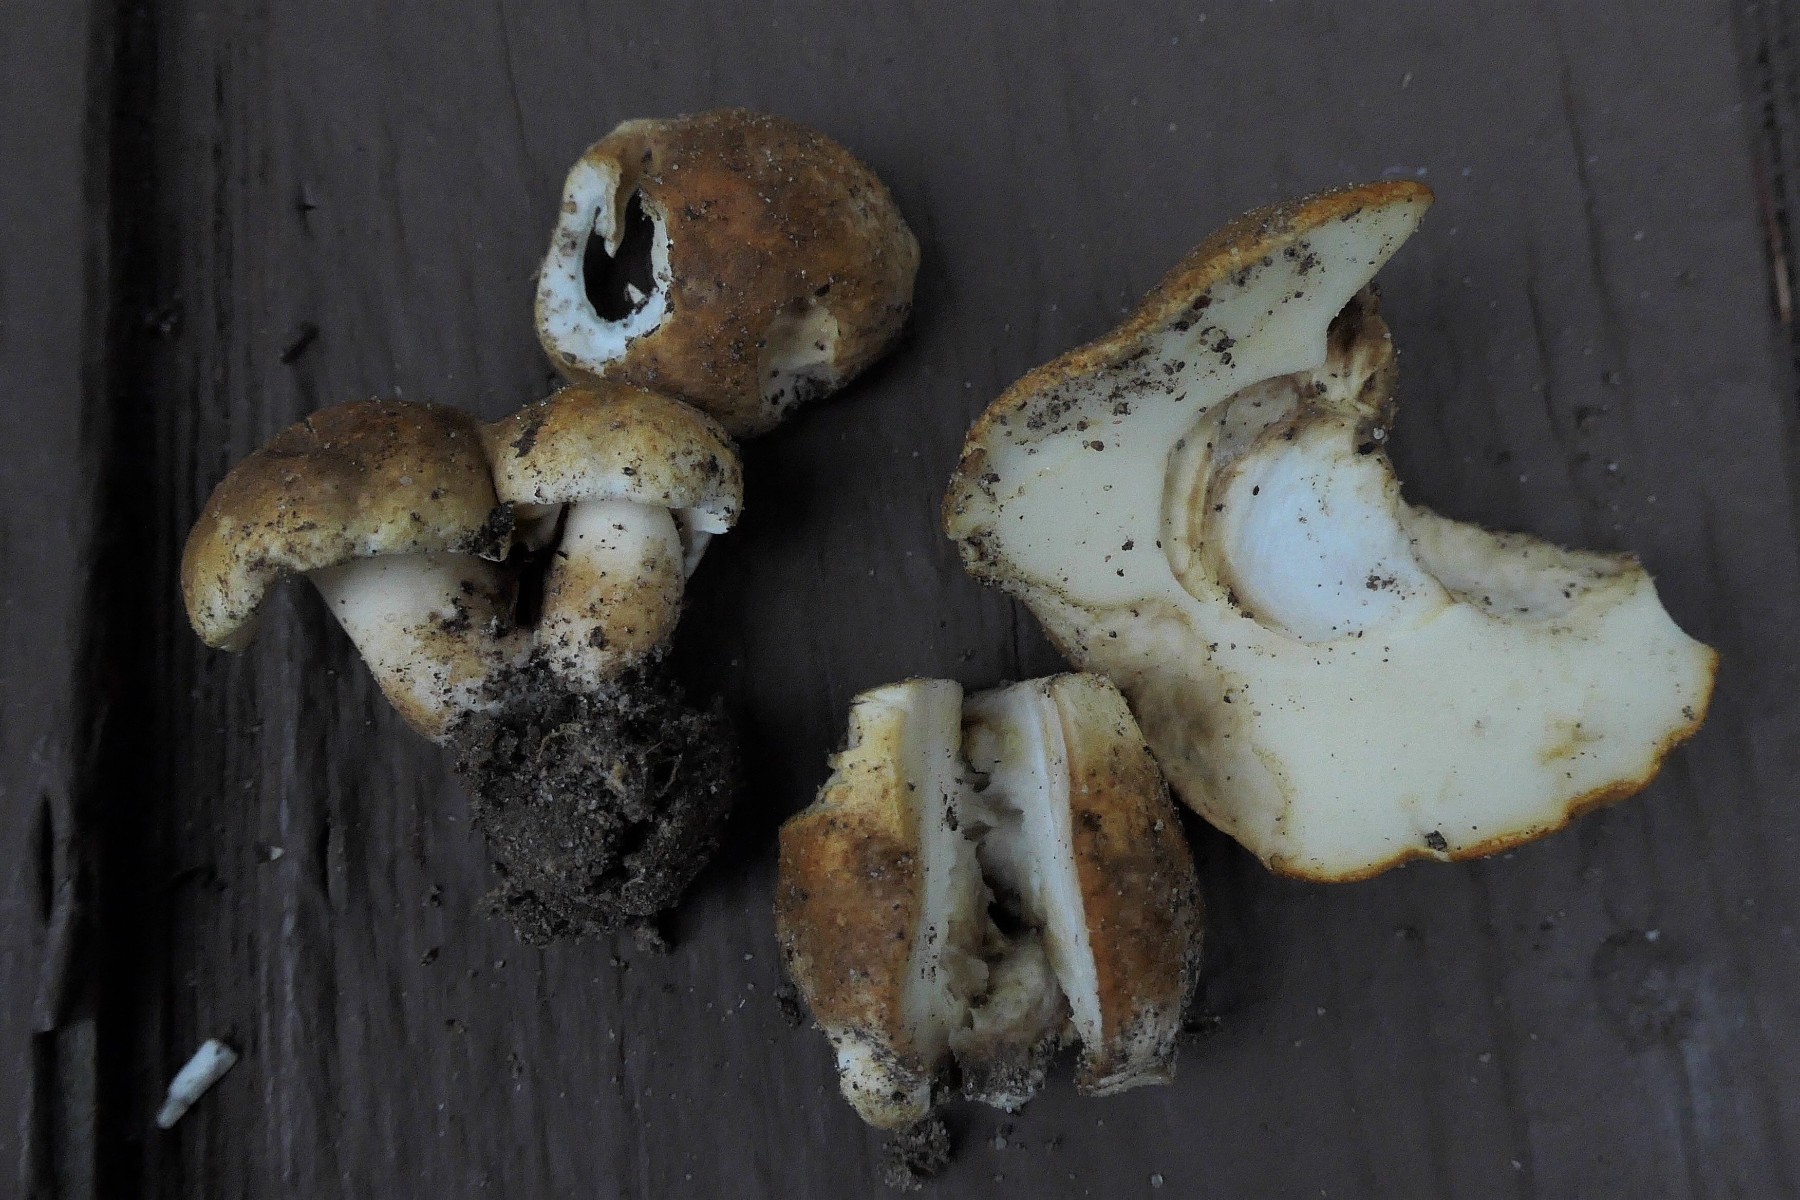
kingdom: Fungi
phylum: Basidiomycota
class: Agaricomycetes
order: Boletales
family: Gyroporaceae
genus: Gyroporus
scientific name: Gyroporus castaneus
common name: kastanie-kammerrørhat
